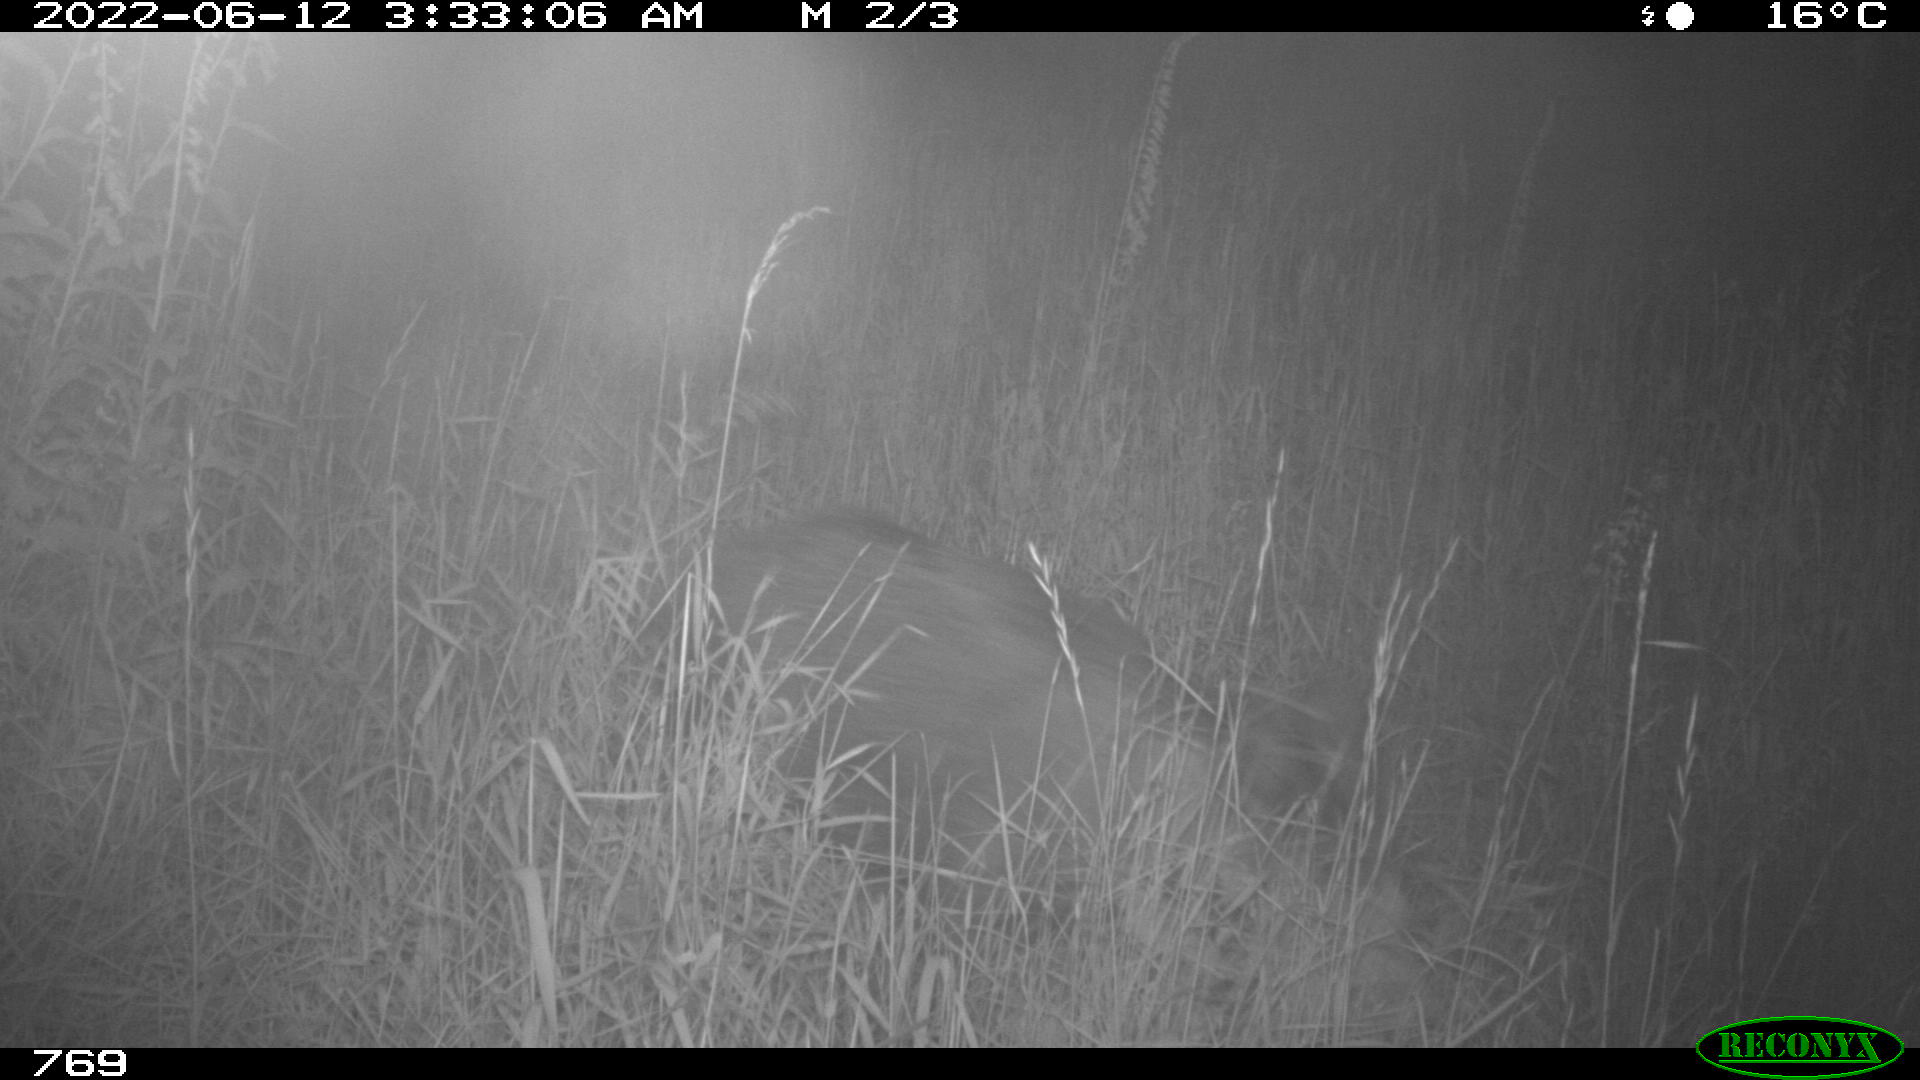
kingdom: Animalia
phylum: Chordata
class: Mammalia
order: Artiodactyla
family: Suidae
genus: Sus
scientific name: Sus scrofa
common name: Wild boar
